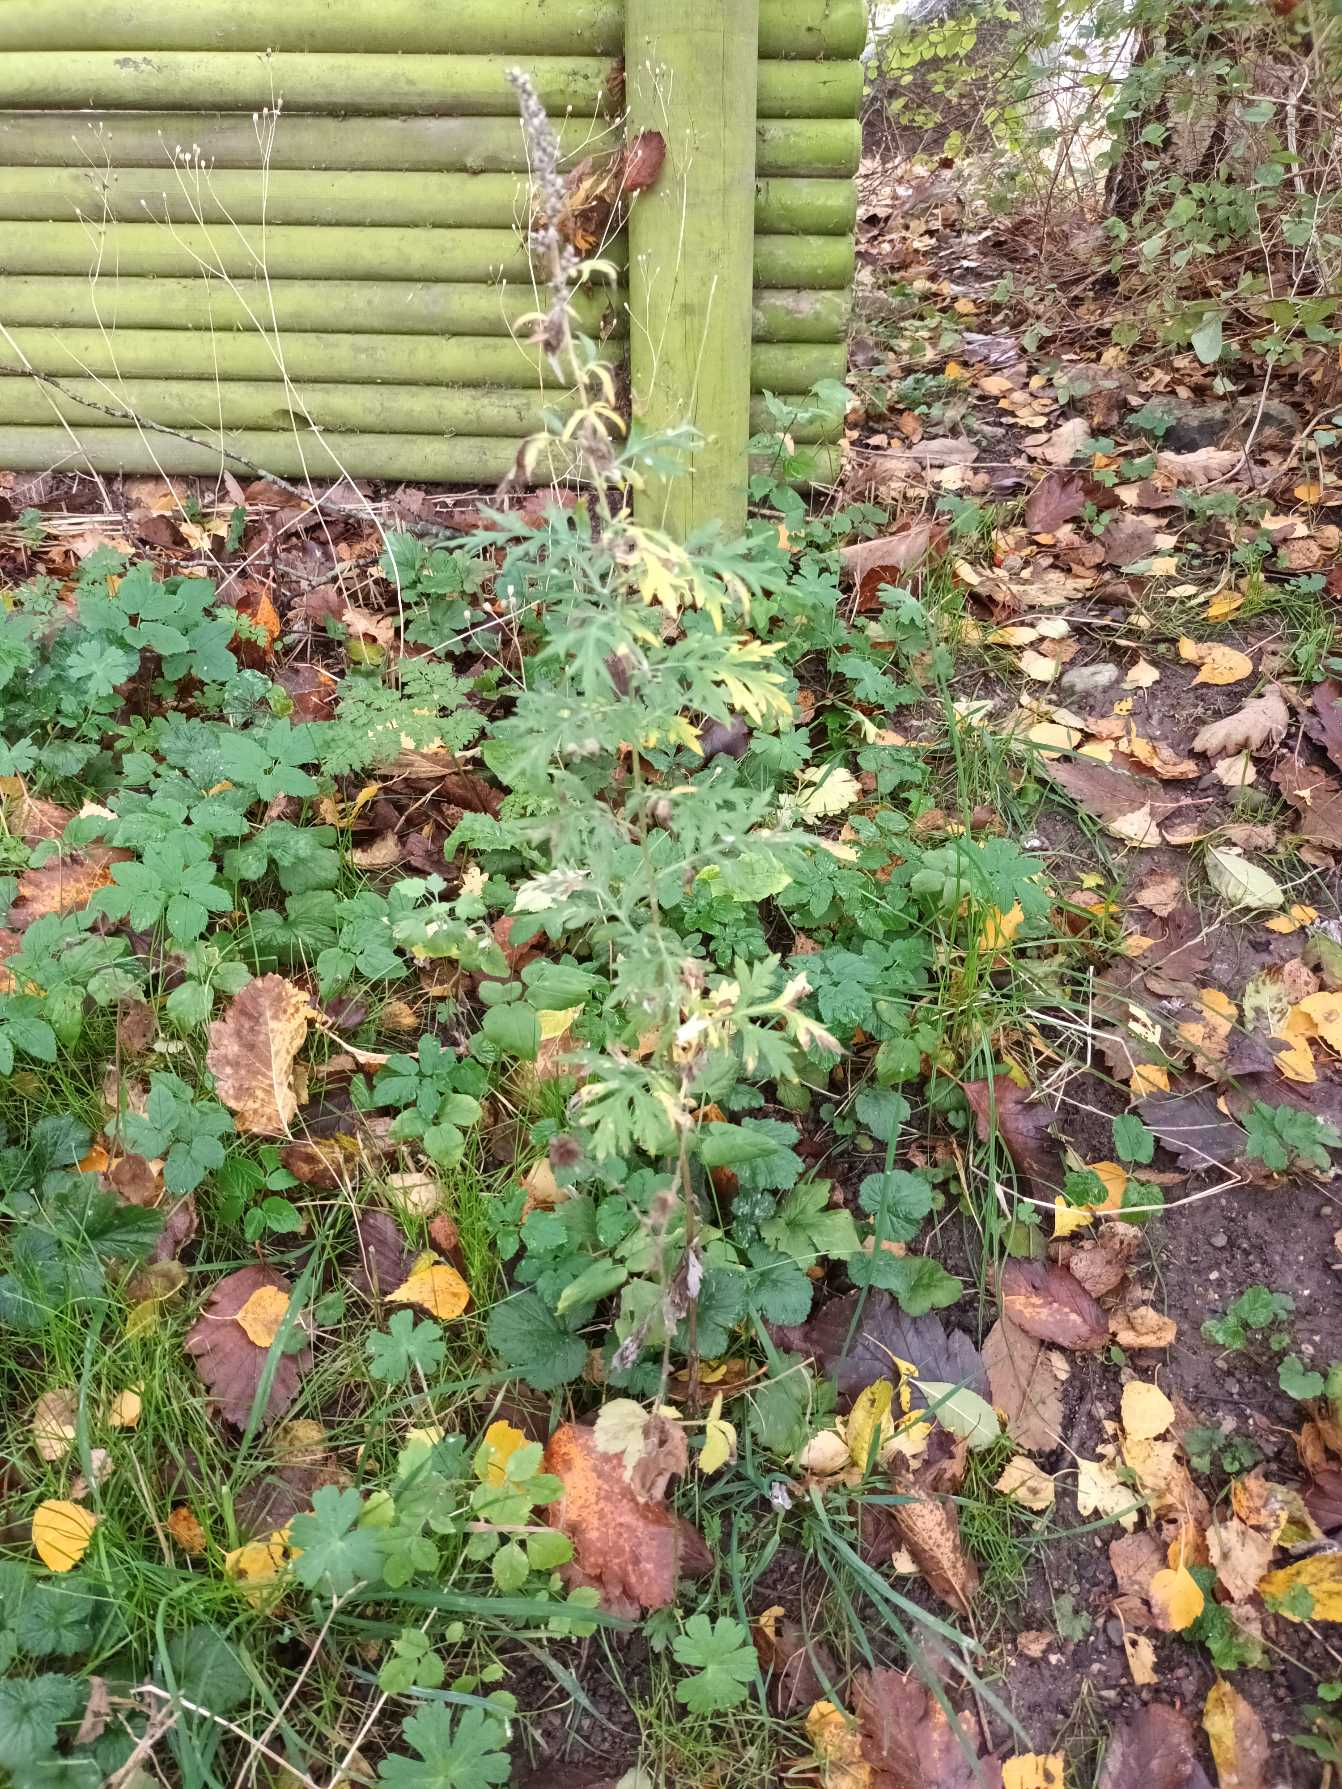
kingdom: Plantae
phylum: Tracheophyta
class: Magnoliopsida
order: Asterales
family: Asteraceae
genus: Artemisia
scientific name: Artemisia vulgaris
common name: Grå-bynke
